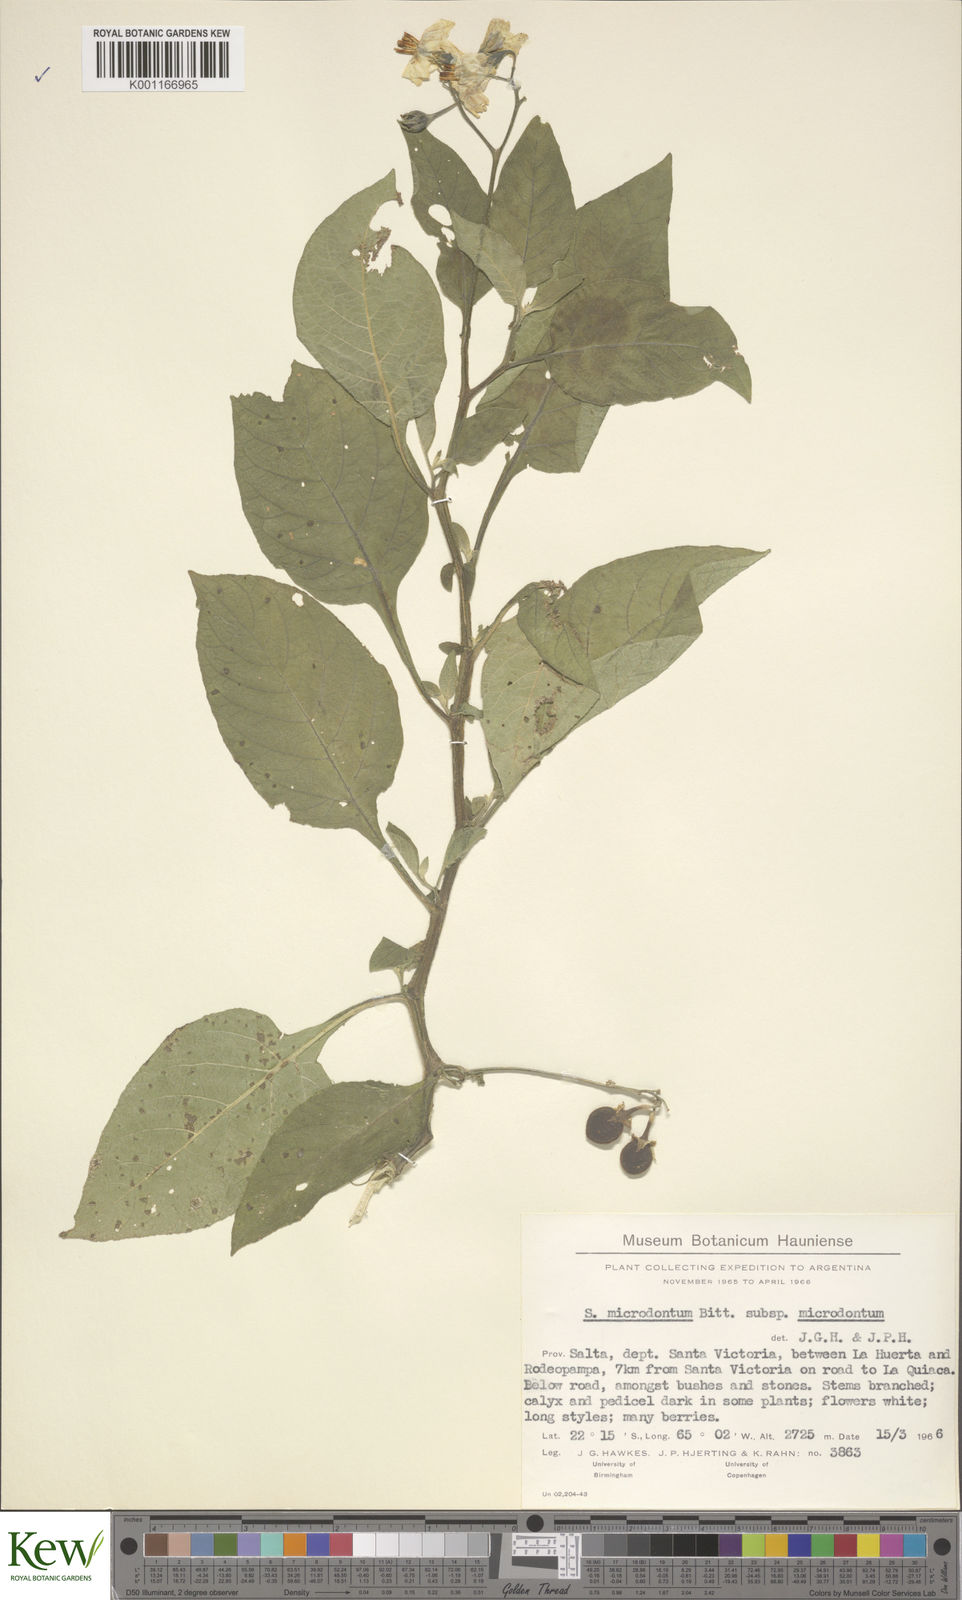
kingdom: Plantae
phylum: Tracheophyta
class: Magnoliopsida
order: Solanales
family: Solanaceae
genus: Solanum
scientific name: Solanum microdontum
